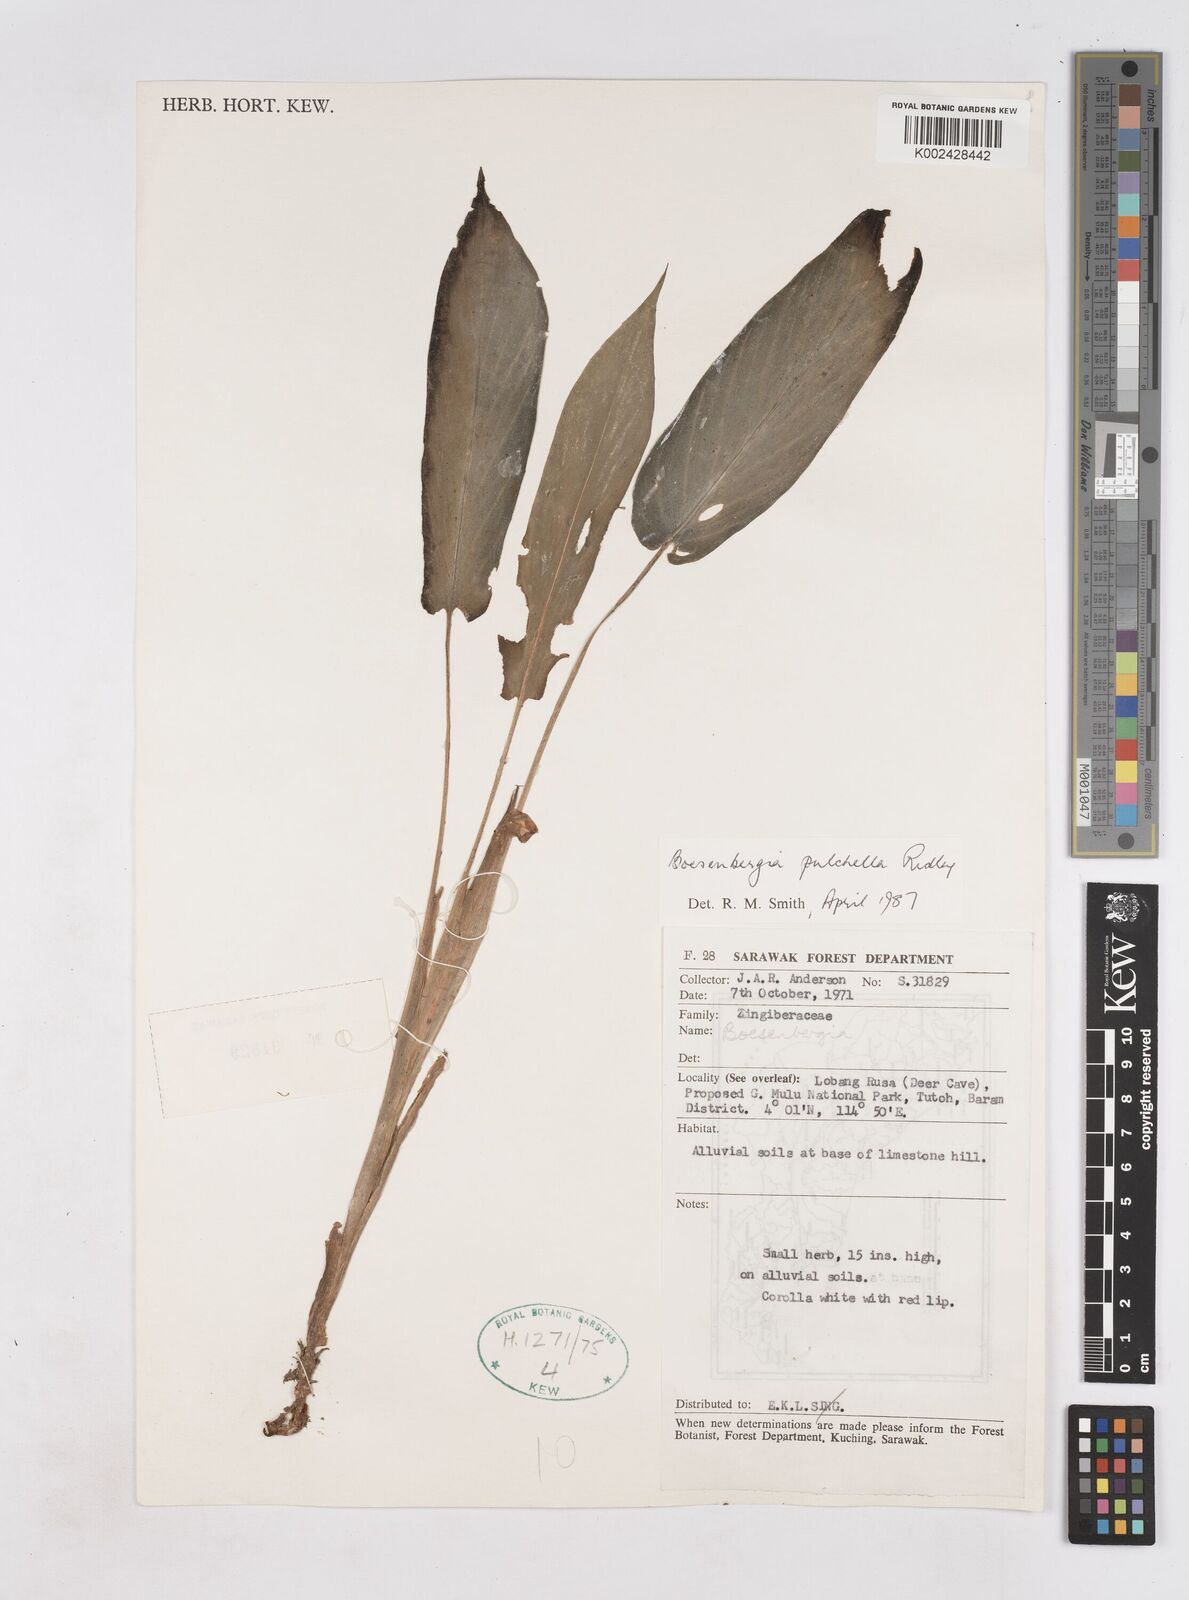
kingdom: Plantae
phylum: Tracheophyta
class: Liliopsida
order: Zingiberales
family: Zingiberaceae
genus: Boesenbergia
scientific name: Boesenbergia pulchella
